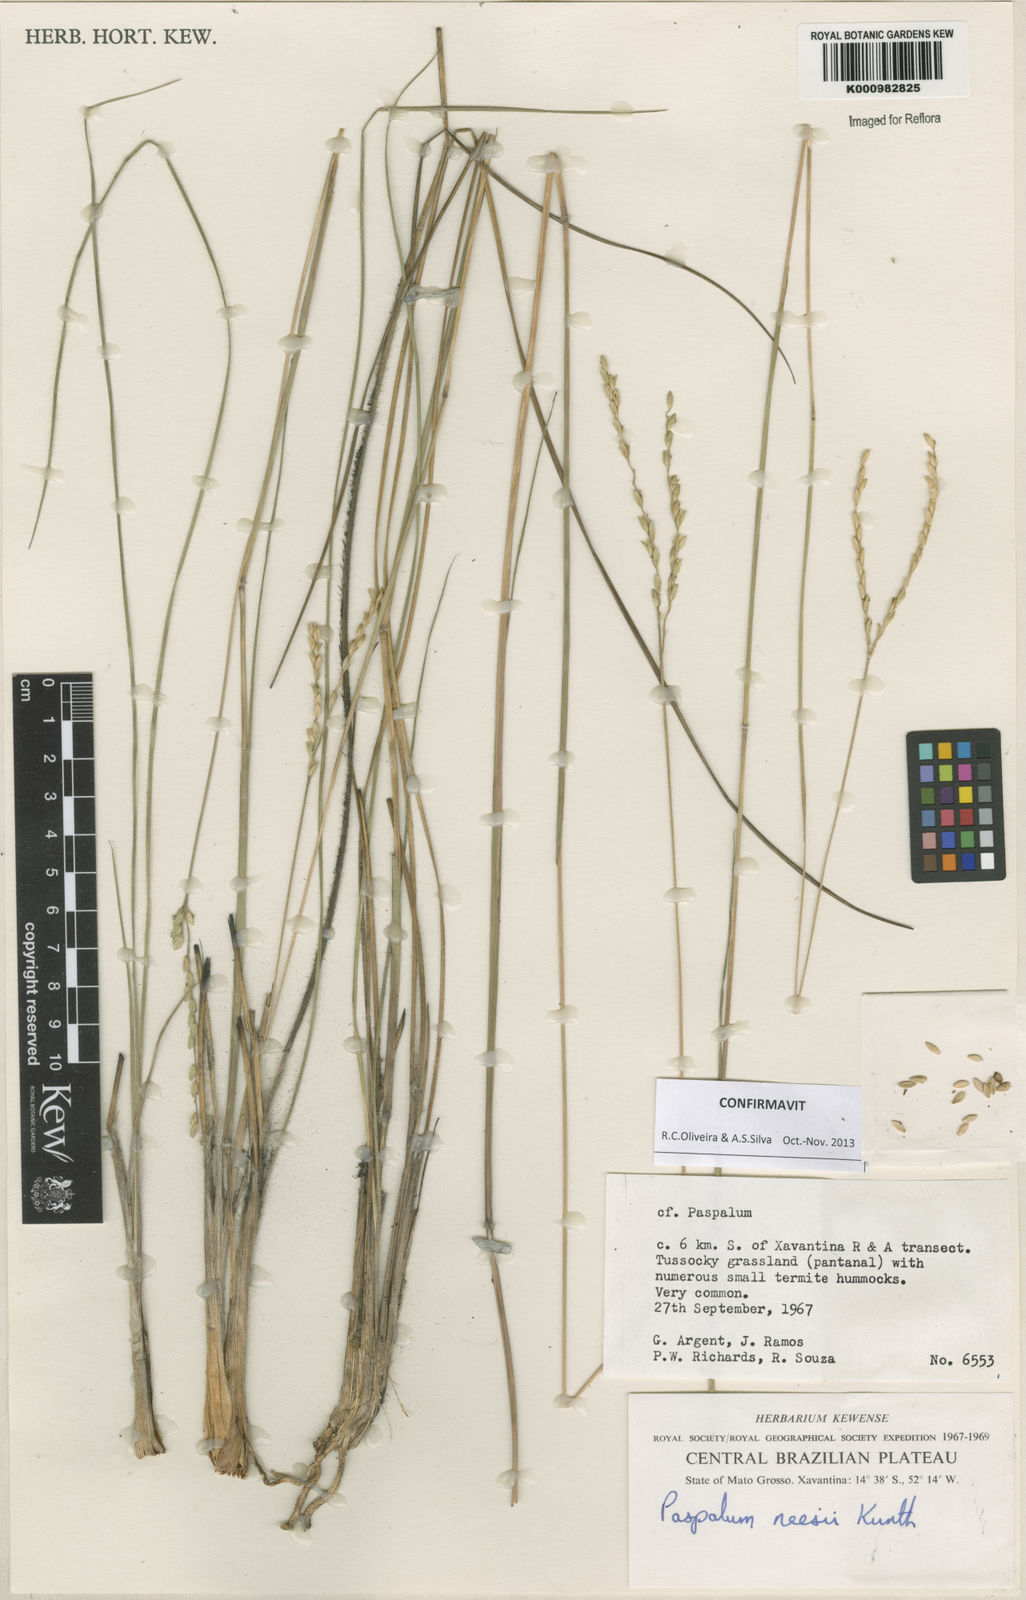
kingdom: Plantae
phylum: Tracheophyta
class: Liliopsida
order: Poales
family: Poaceae
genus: Paspalum
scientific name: Paspalum lineare
